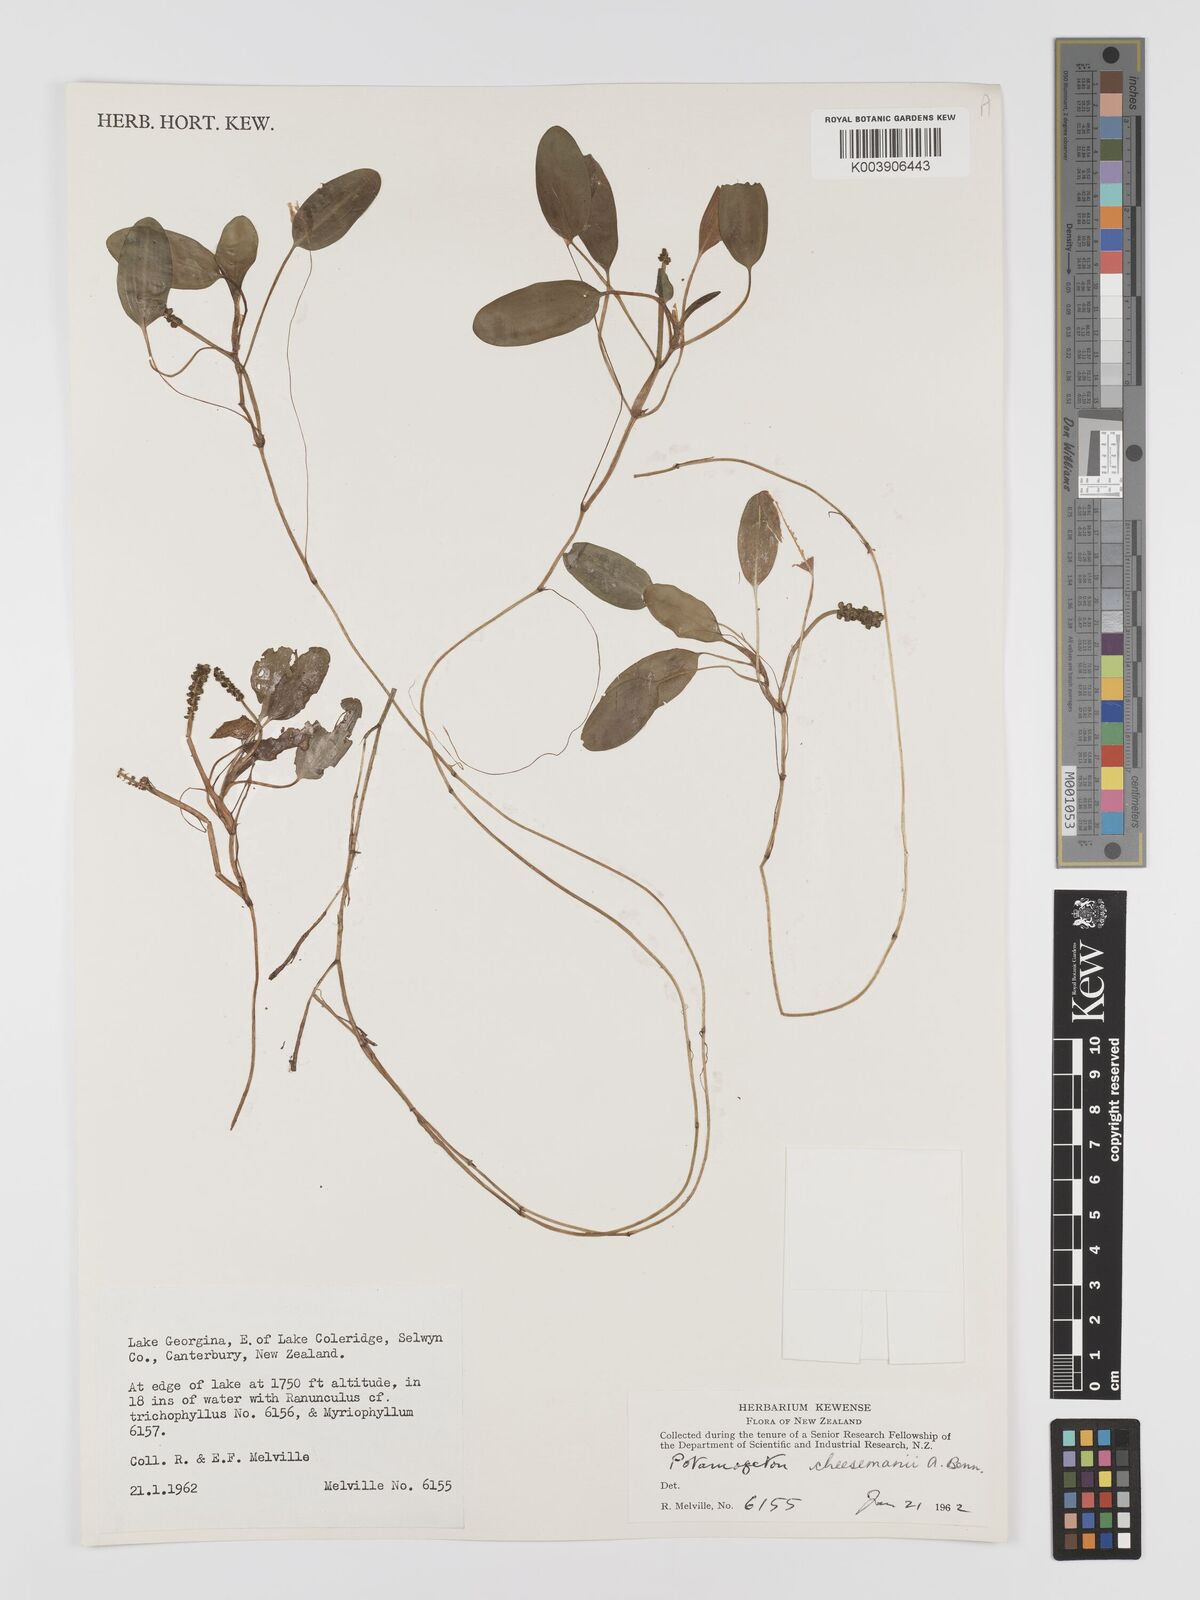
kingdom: Plantae
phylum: Tracheophyta
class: Liliopsida
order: Alismatales
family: Potamogetonaceae
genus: Potamogeton
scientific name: Potamogeton cheesemanii
